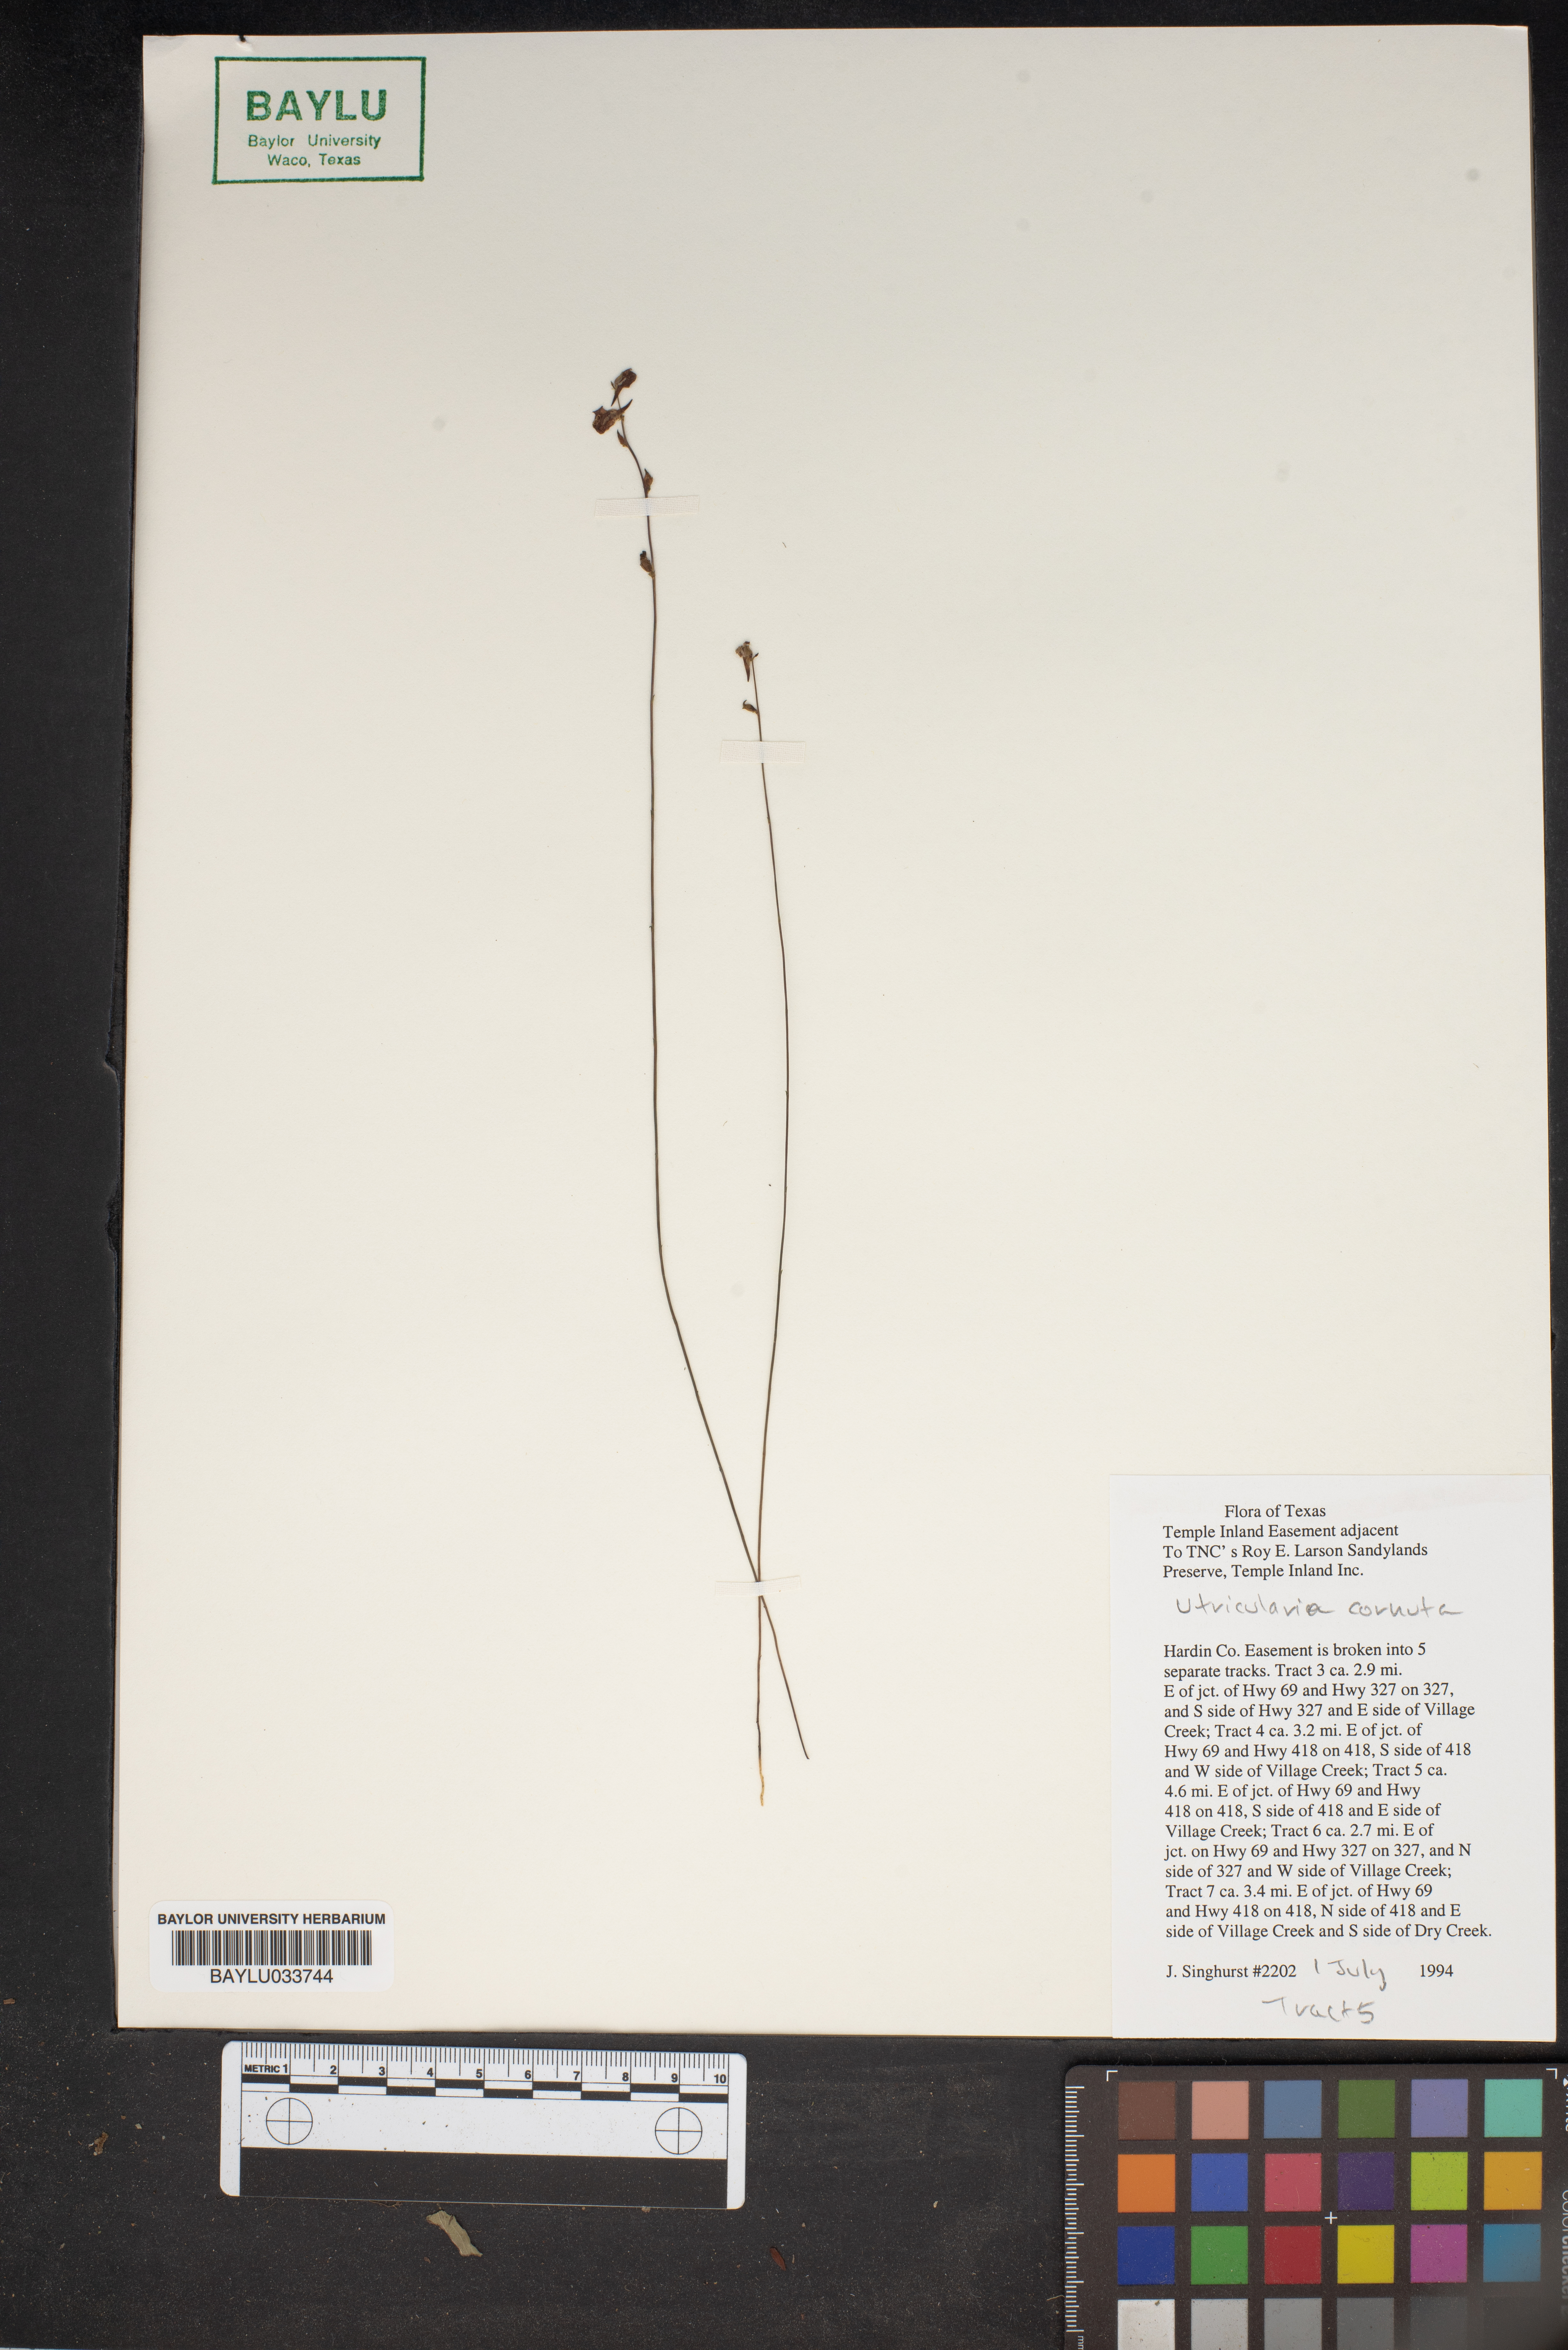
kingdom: Plantae
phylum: Tracheophyta
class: Magnoliopsida
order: Lamiales
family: Lentibulariaceae
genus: Utricularia
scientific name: Utricularia cornuta
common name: Horned bladderwort
